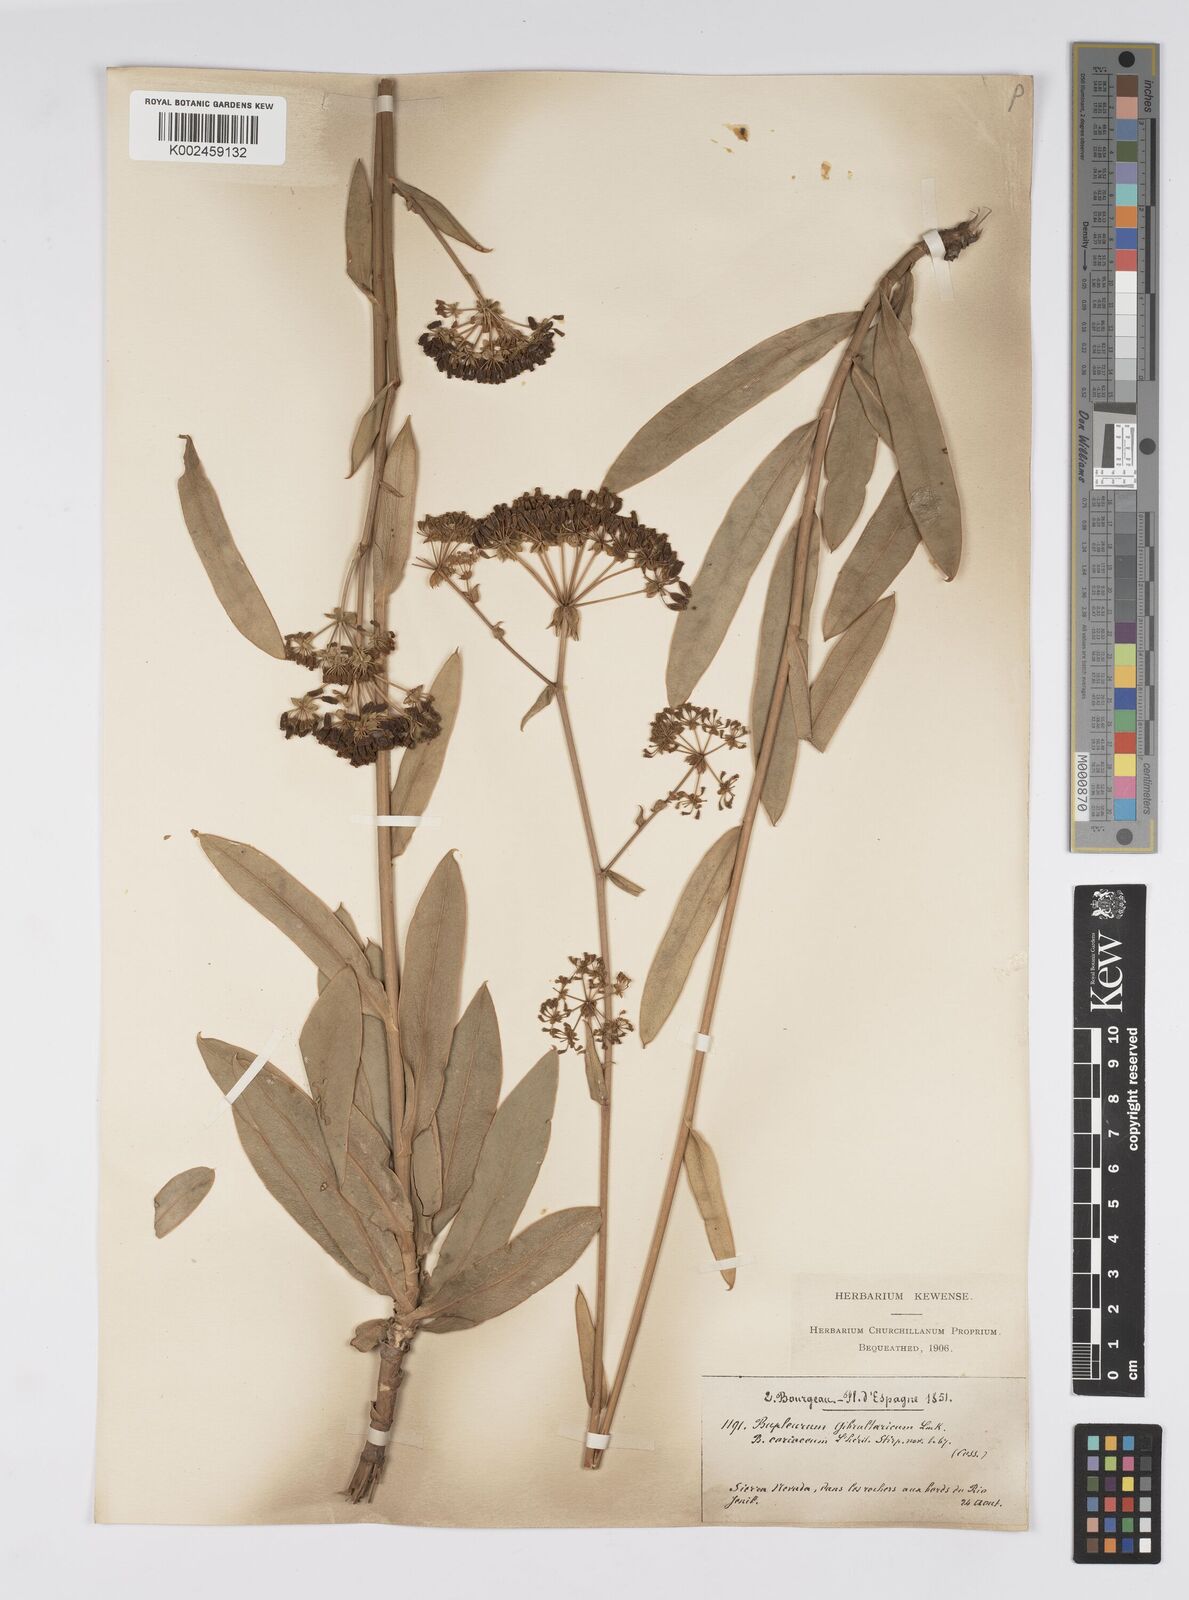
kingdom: Plantae
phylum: Tracheophyta
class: Magnoliopsida
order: Apiales
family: Apiaceae
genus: Bupleurum
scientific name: Bupleurum gibraltaricum
